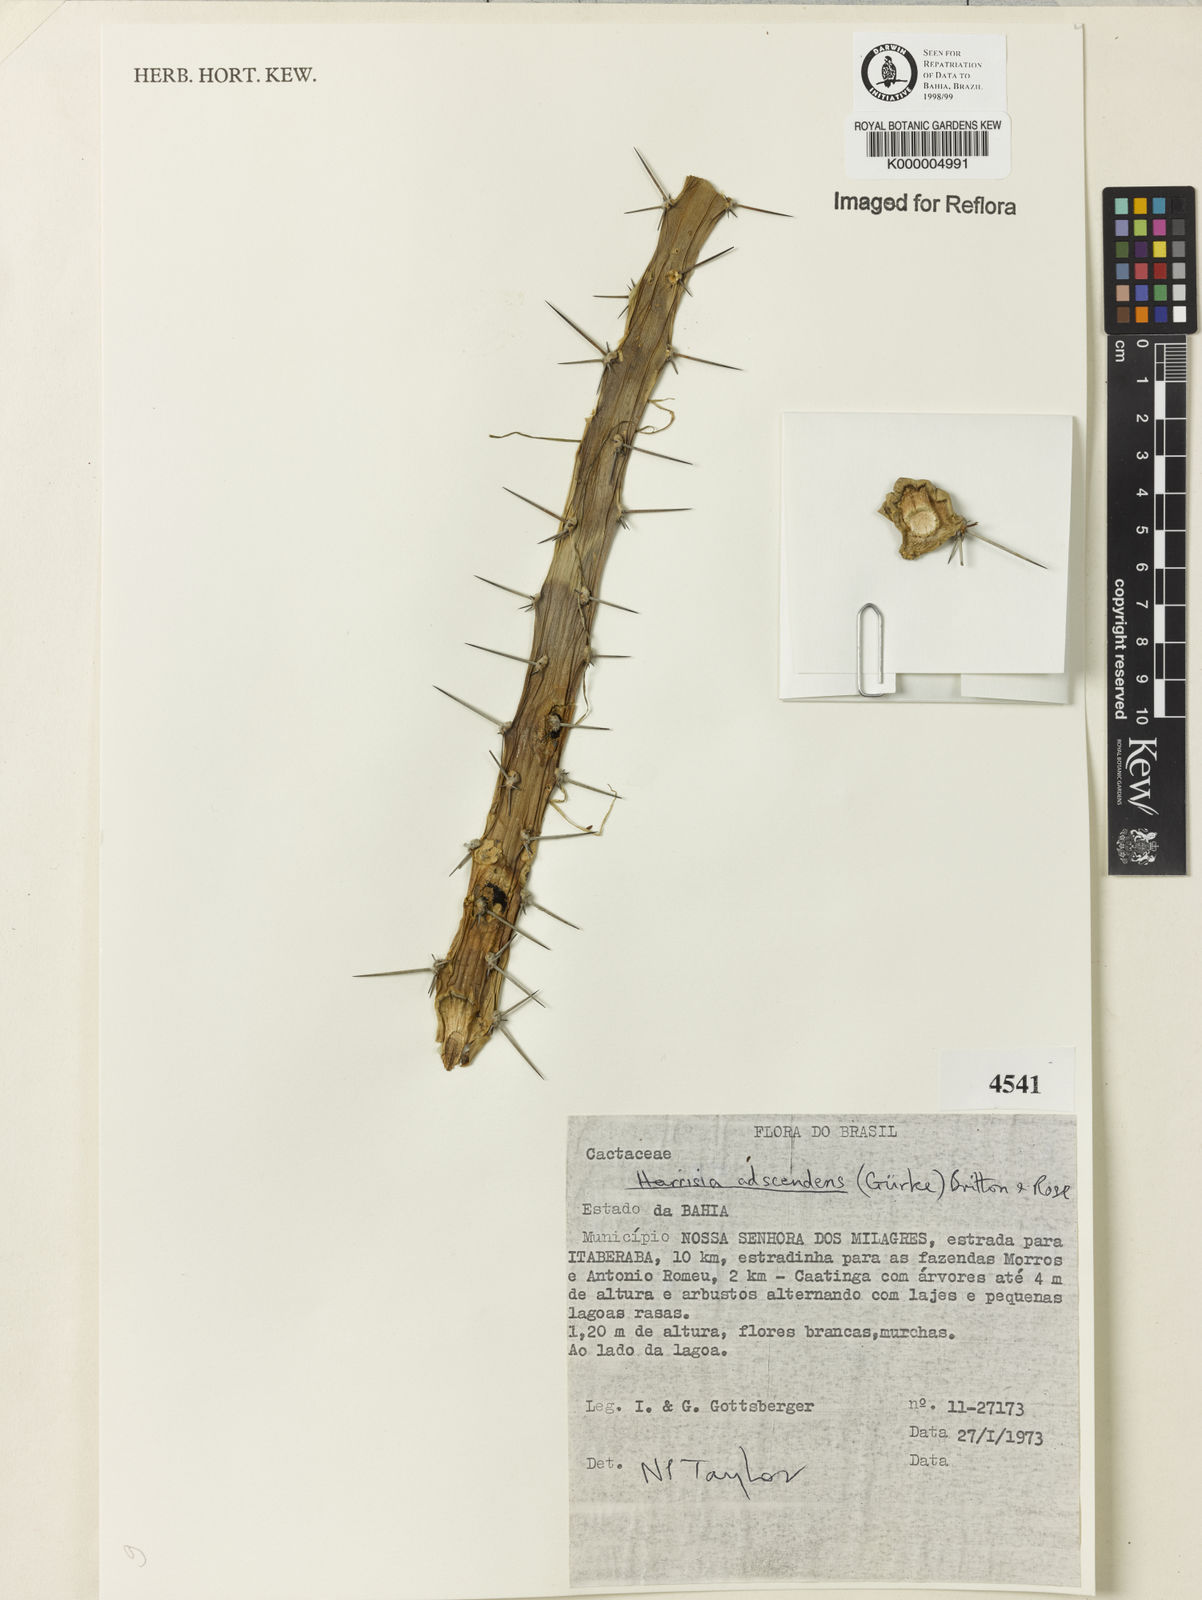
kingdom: Plantae
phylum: Tracheophyta
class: Magnoliopsida
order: Caryophyllales
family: Cactaceae
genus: Harrisia
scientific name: Harrisia adscendens
